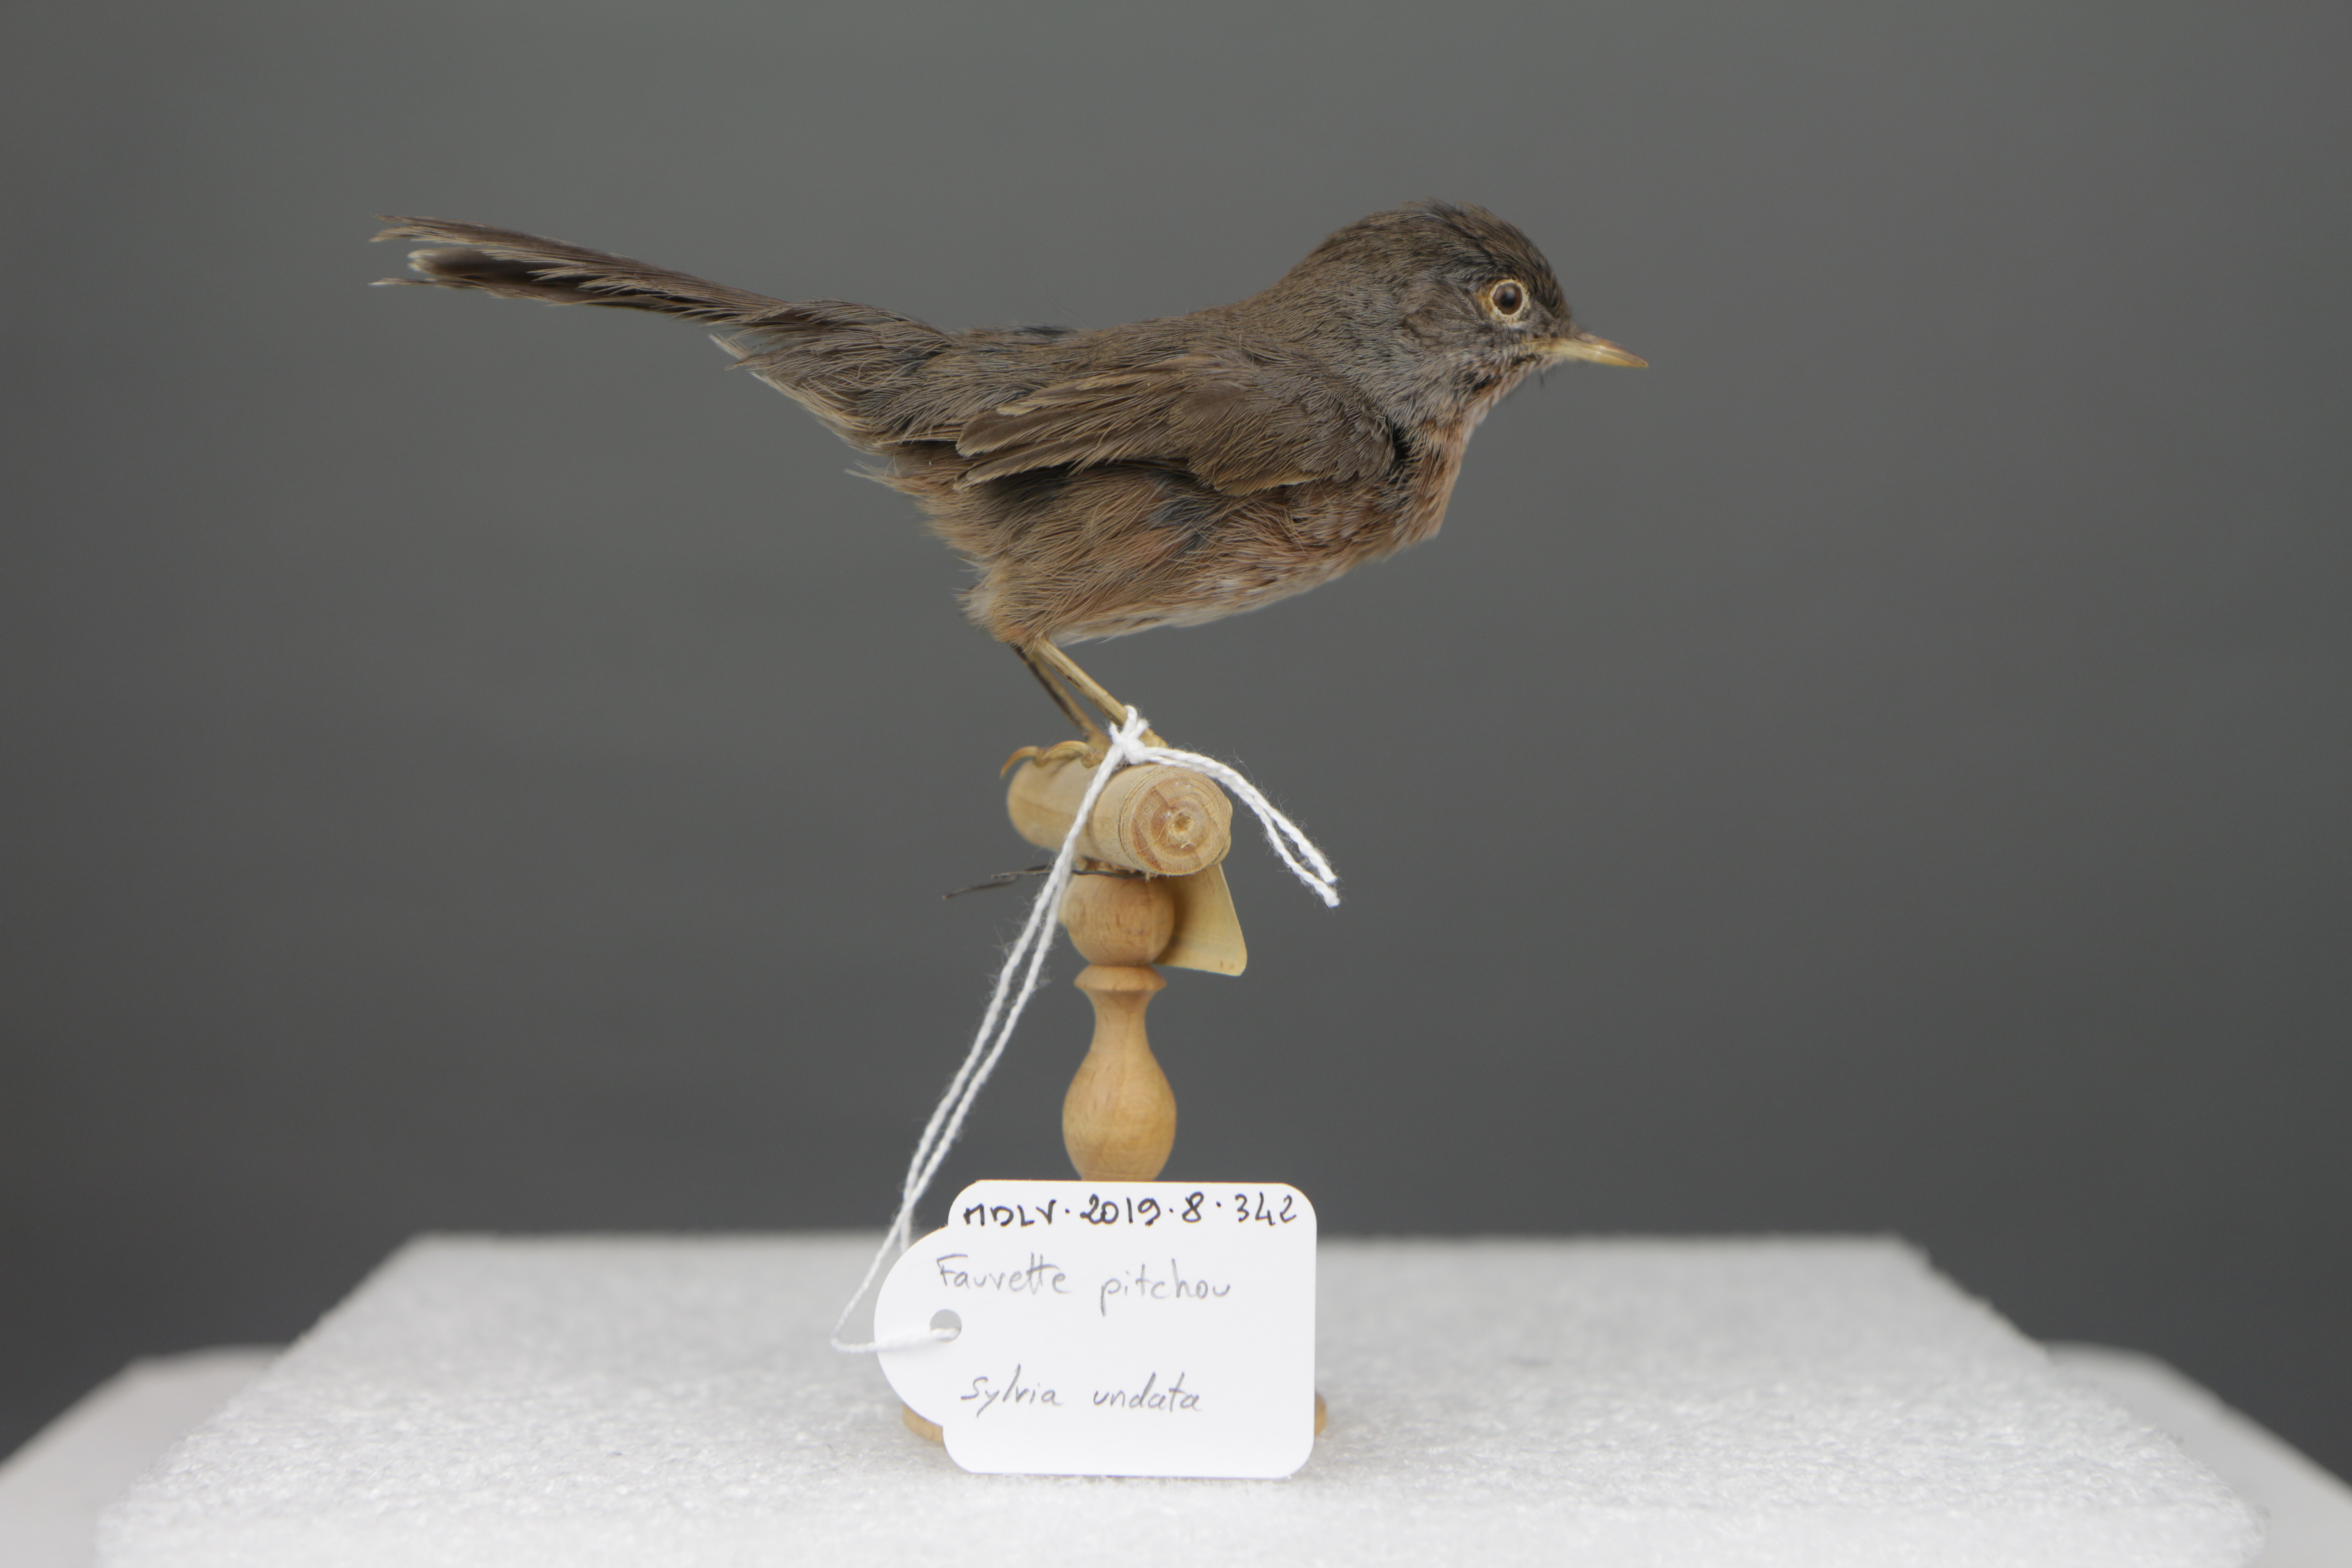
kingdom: Animalia
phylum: Chordata
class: Aves
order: Passeriformes
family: Sylviidae
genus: Sylvia
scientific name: Sylvia undata
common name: Dartford warbler
